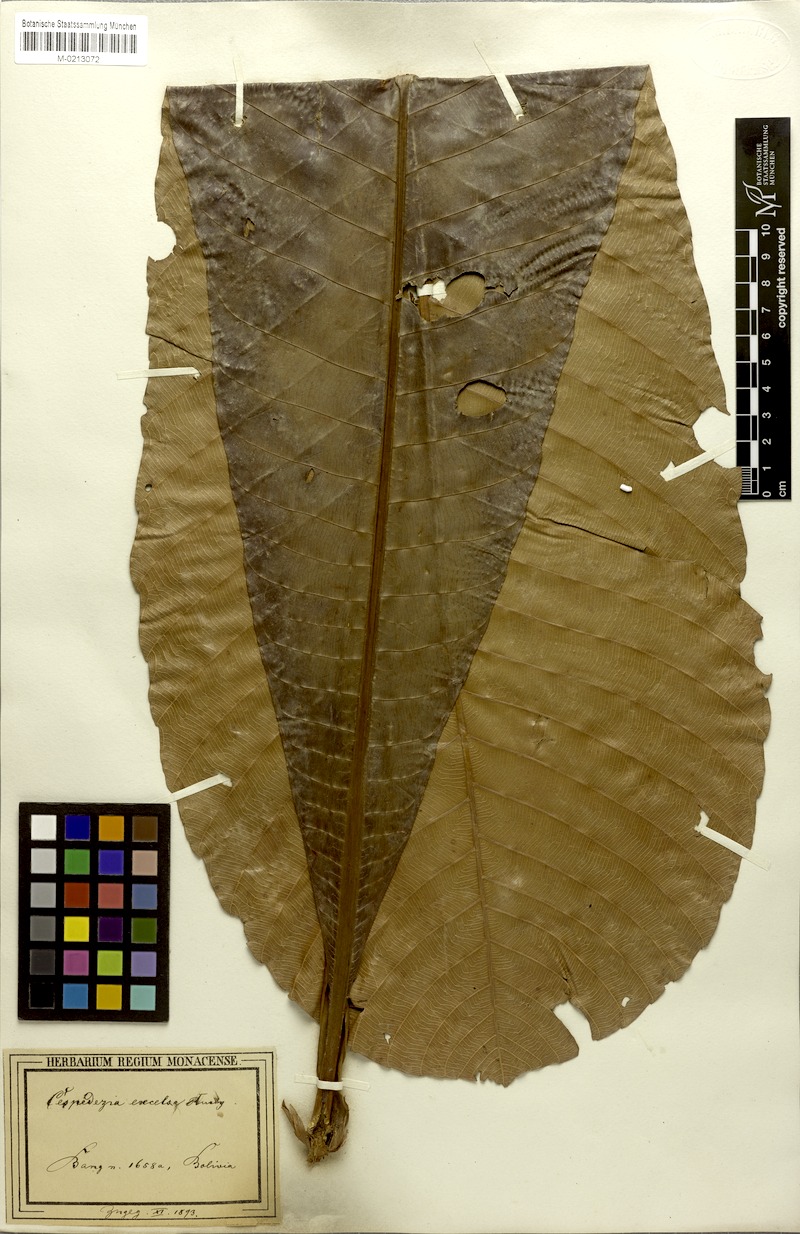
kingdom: Plantae
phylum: Tracheophyta
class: Magnoliopsida
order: Malpighiales
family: Ochnaceae
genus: Cespedesia
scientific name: Cespedesia spathulata
